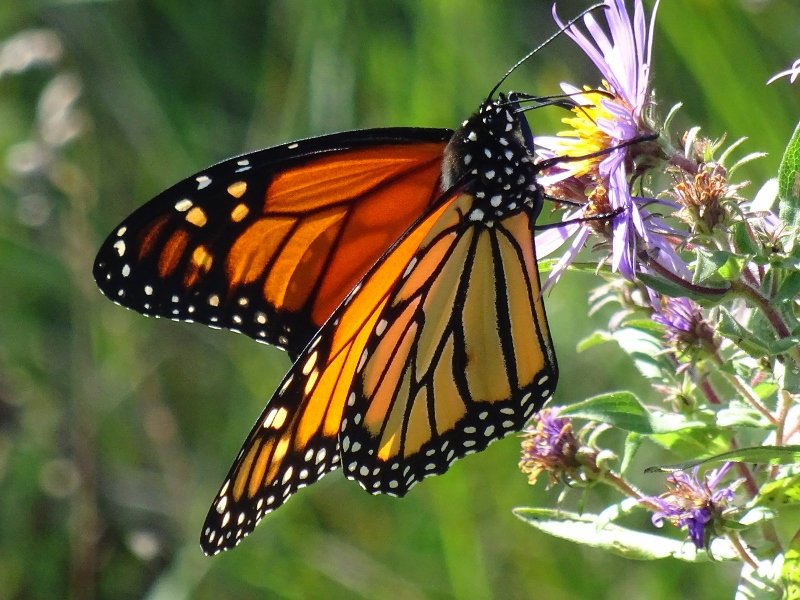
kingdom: Animalia
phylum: Arthropoda
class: Insecta
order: Lepidoptera
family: Nymphalidae
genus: Danaus
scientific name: Danaus plexippus
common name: Monarch
